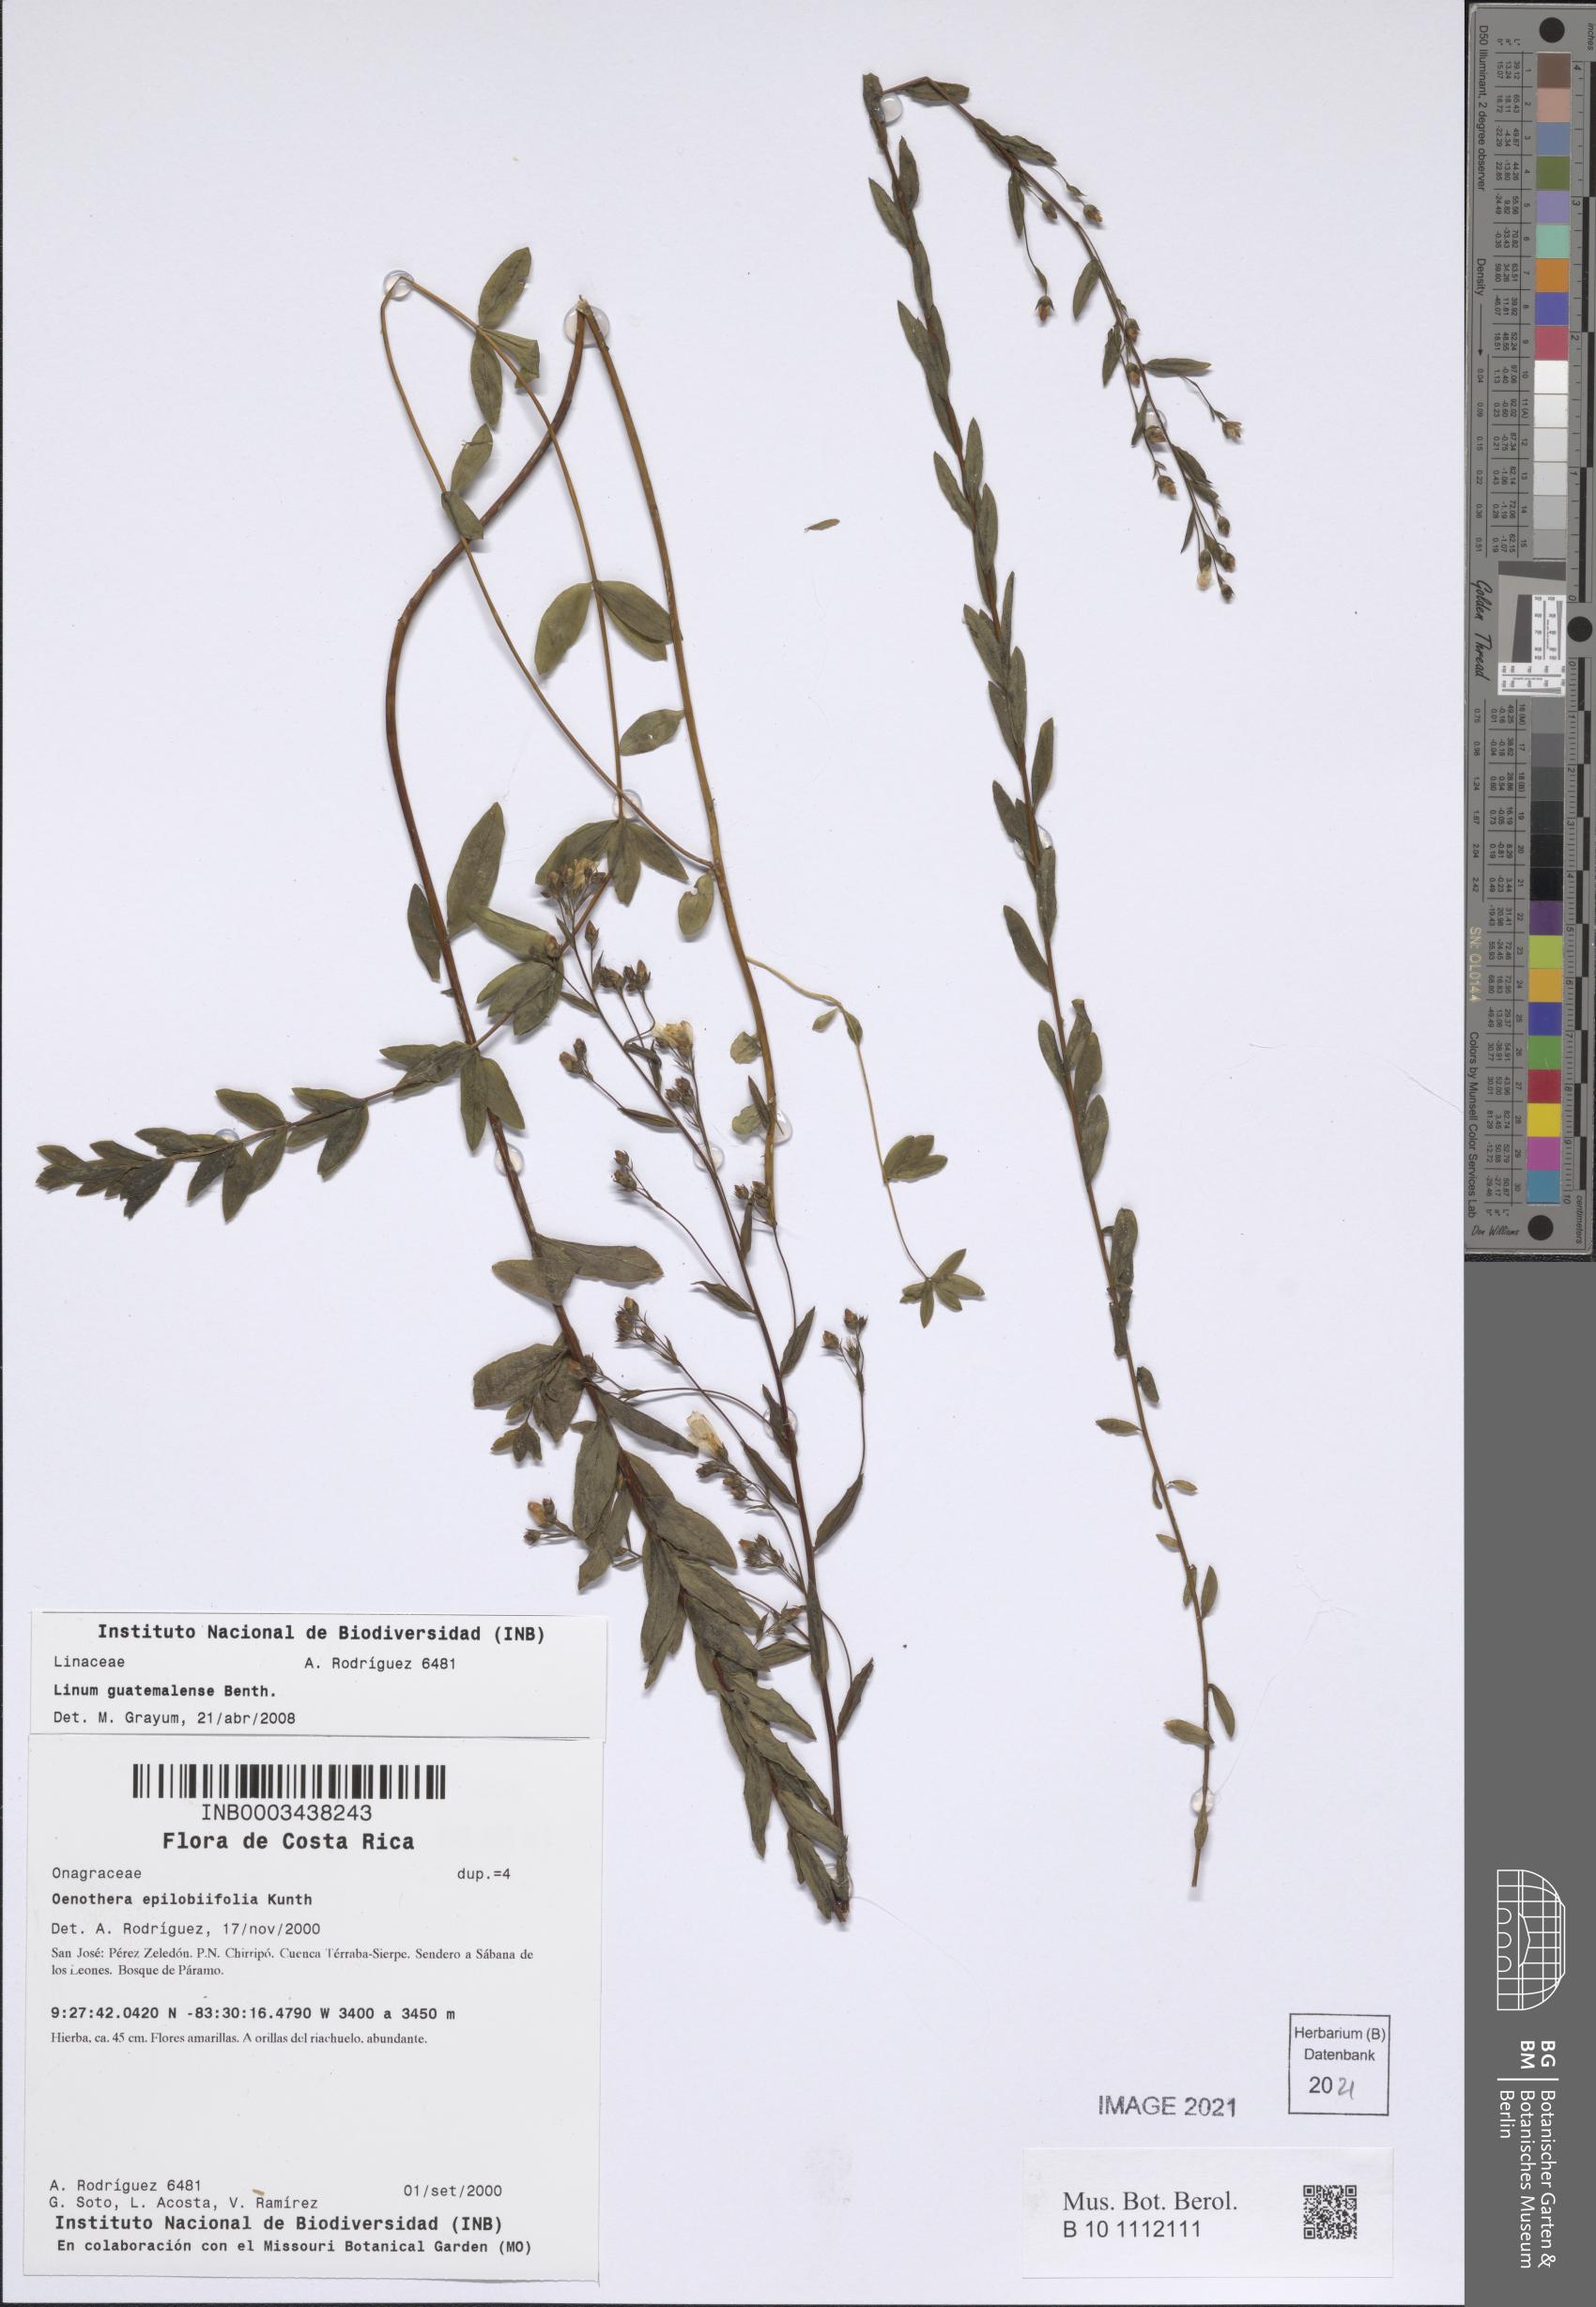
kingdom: Plantae
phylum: Tracheophyta
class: Magnoliopsida
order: Malpighiales
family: Linaceae
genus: Linum
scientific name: Linum guatemalense
